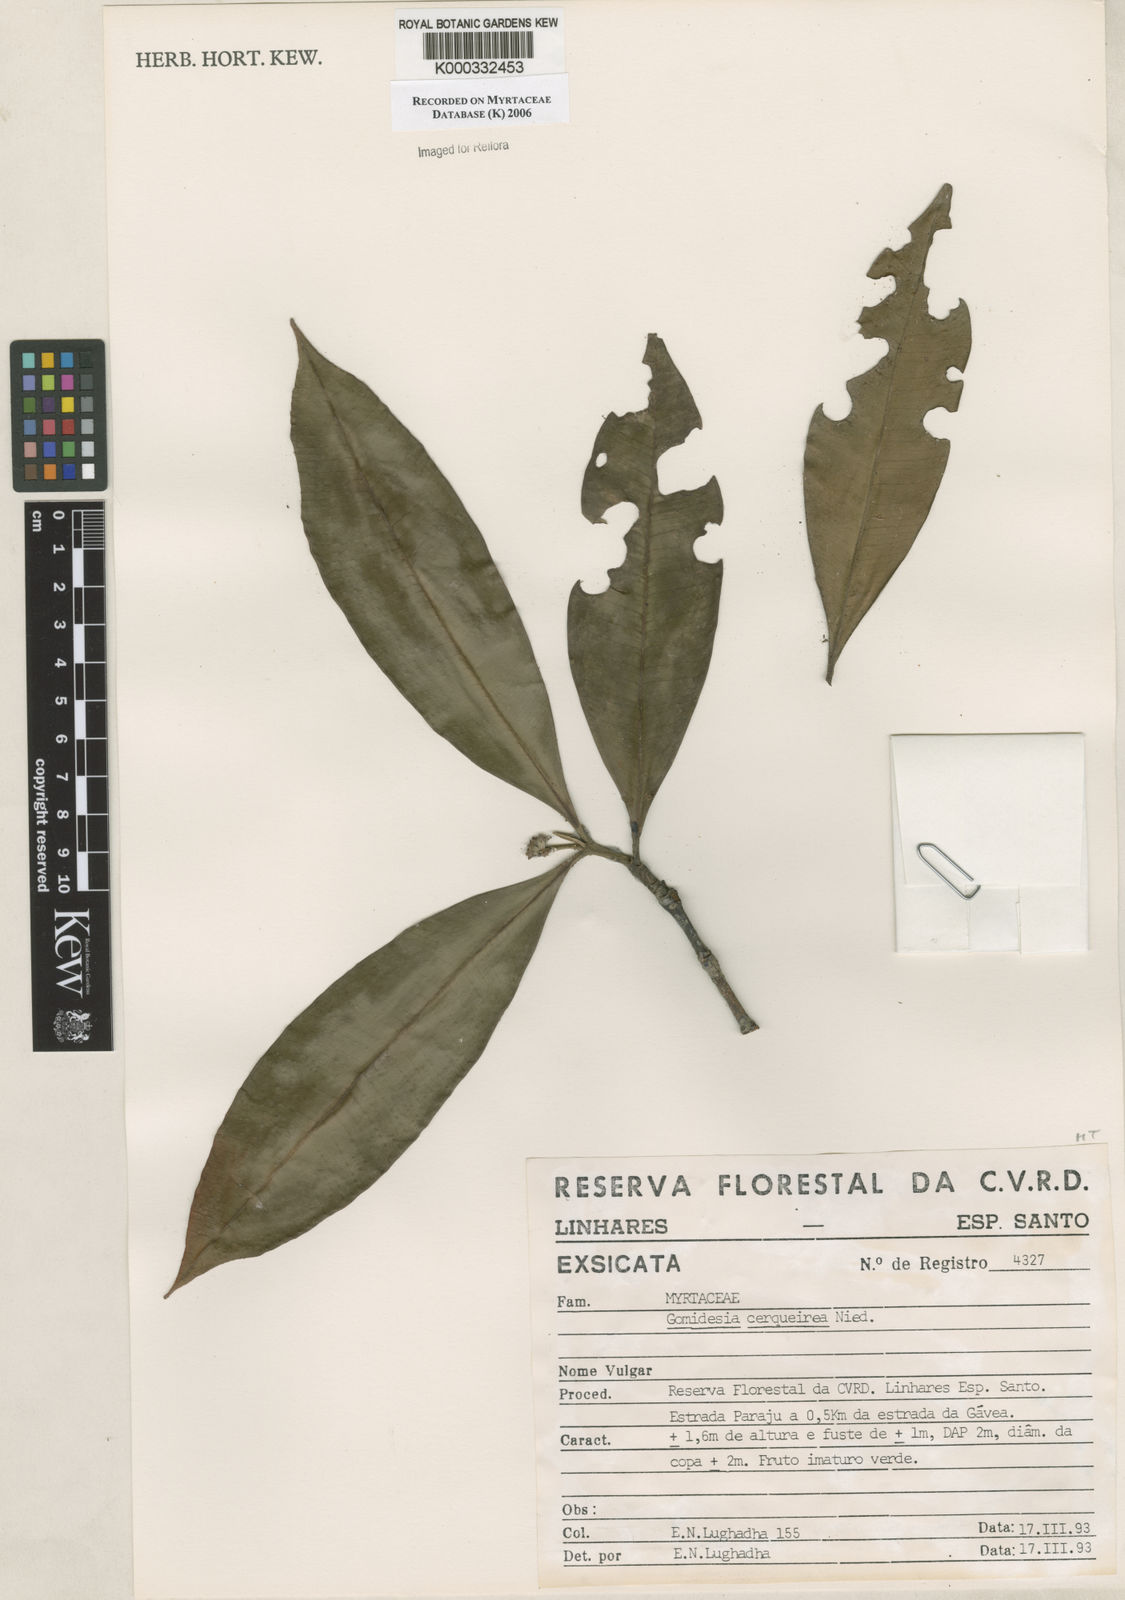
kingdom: Plantae
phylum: Tracheophyta
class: Magnoliopsida
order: Myrtales
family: Myrtaceae
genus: Myrcia
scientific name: Myrcia cerqueiria
